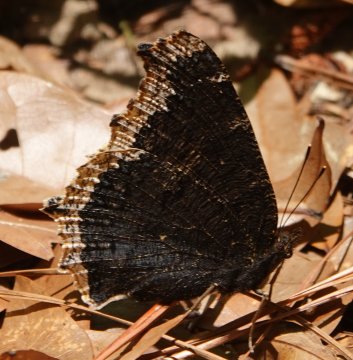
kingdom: Animalia
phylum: Arthropoda
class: Insecta
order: Lepidoptera
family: Nymphalidae
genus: Nymphalis
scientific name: Nymphalis antiopa
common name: Mourning Cloak
